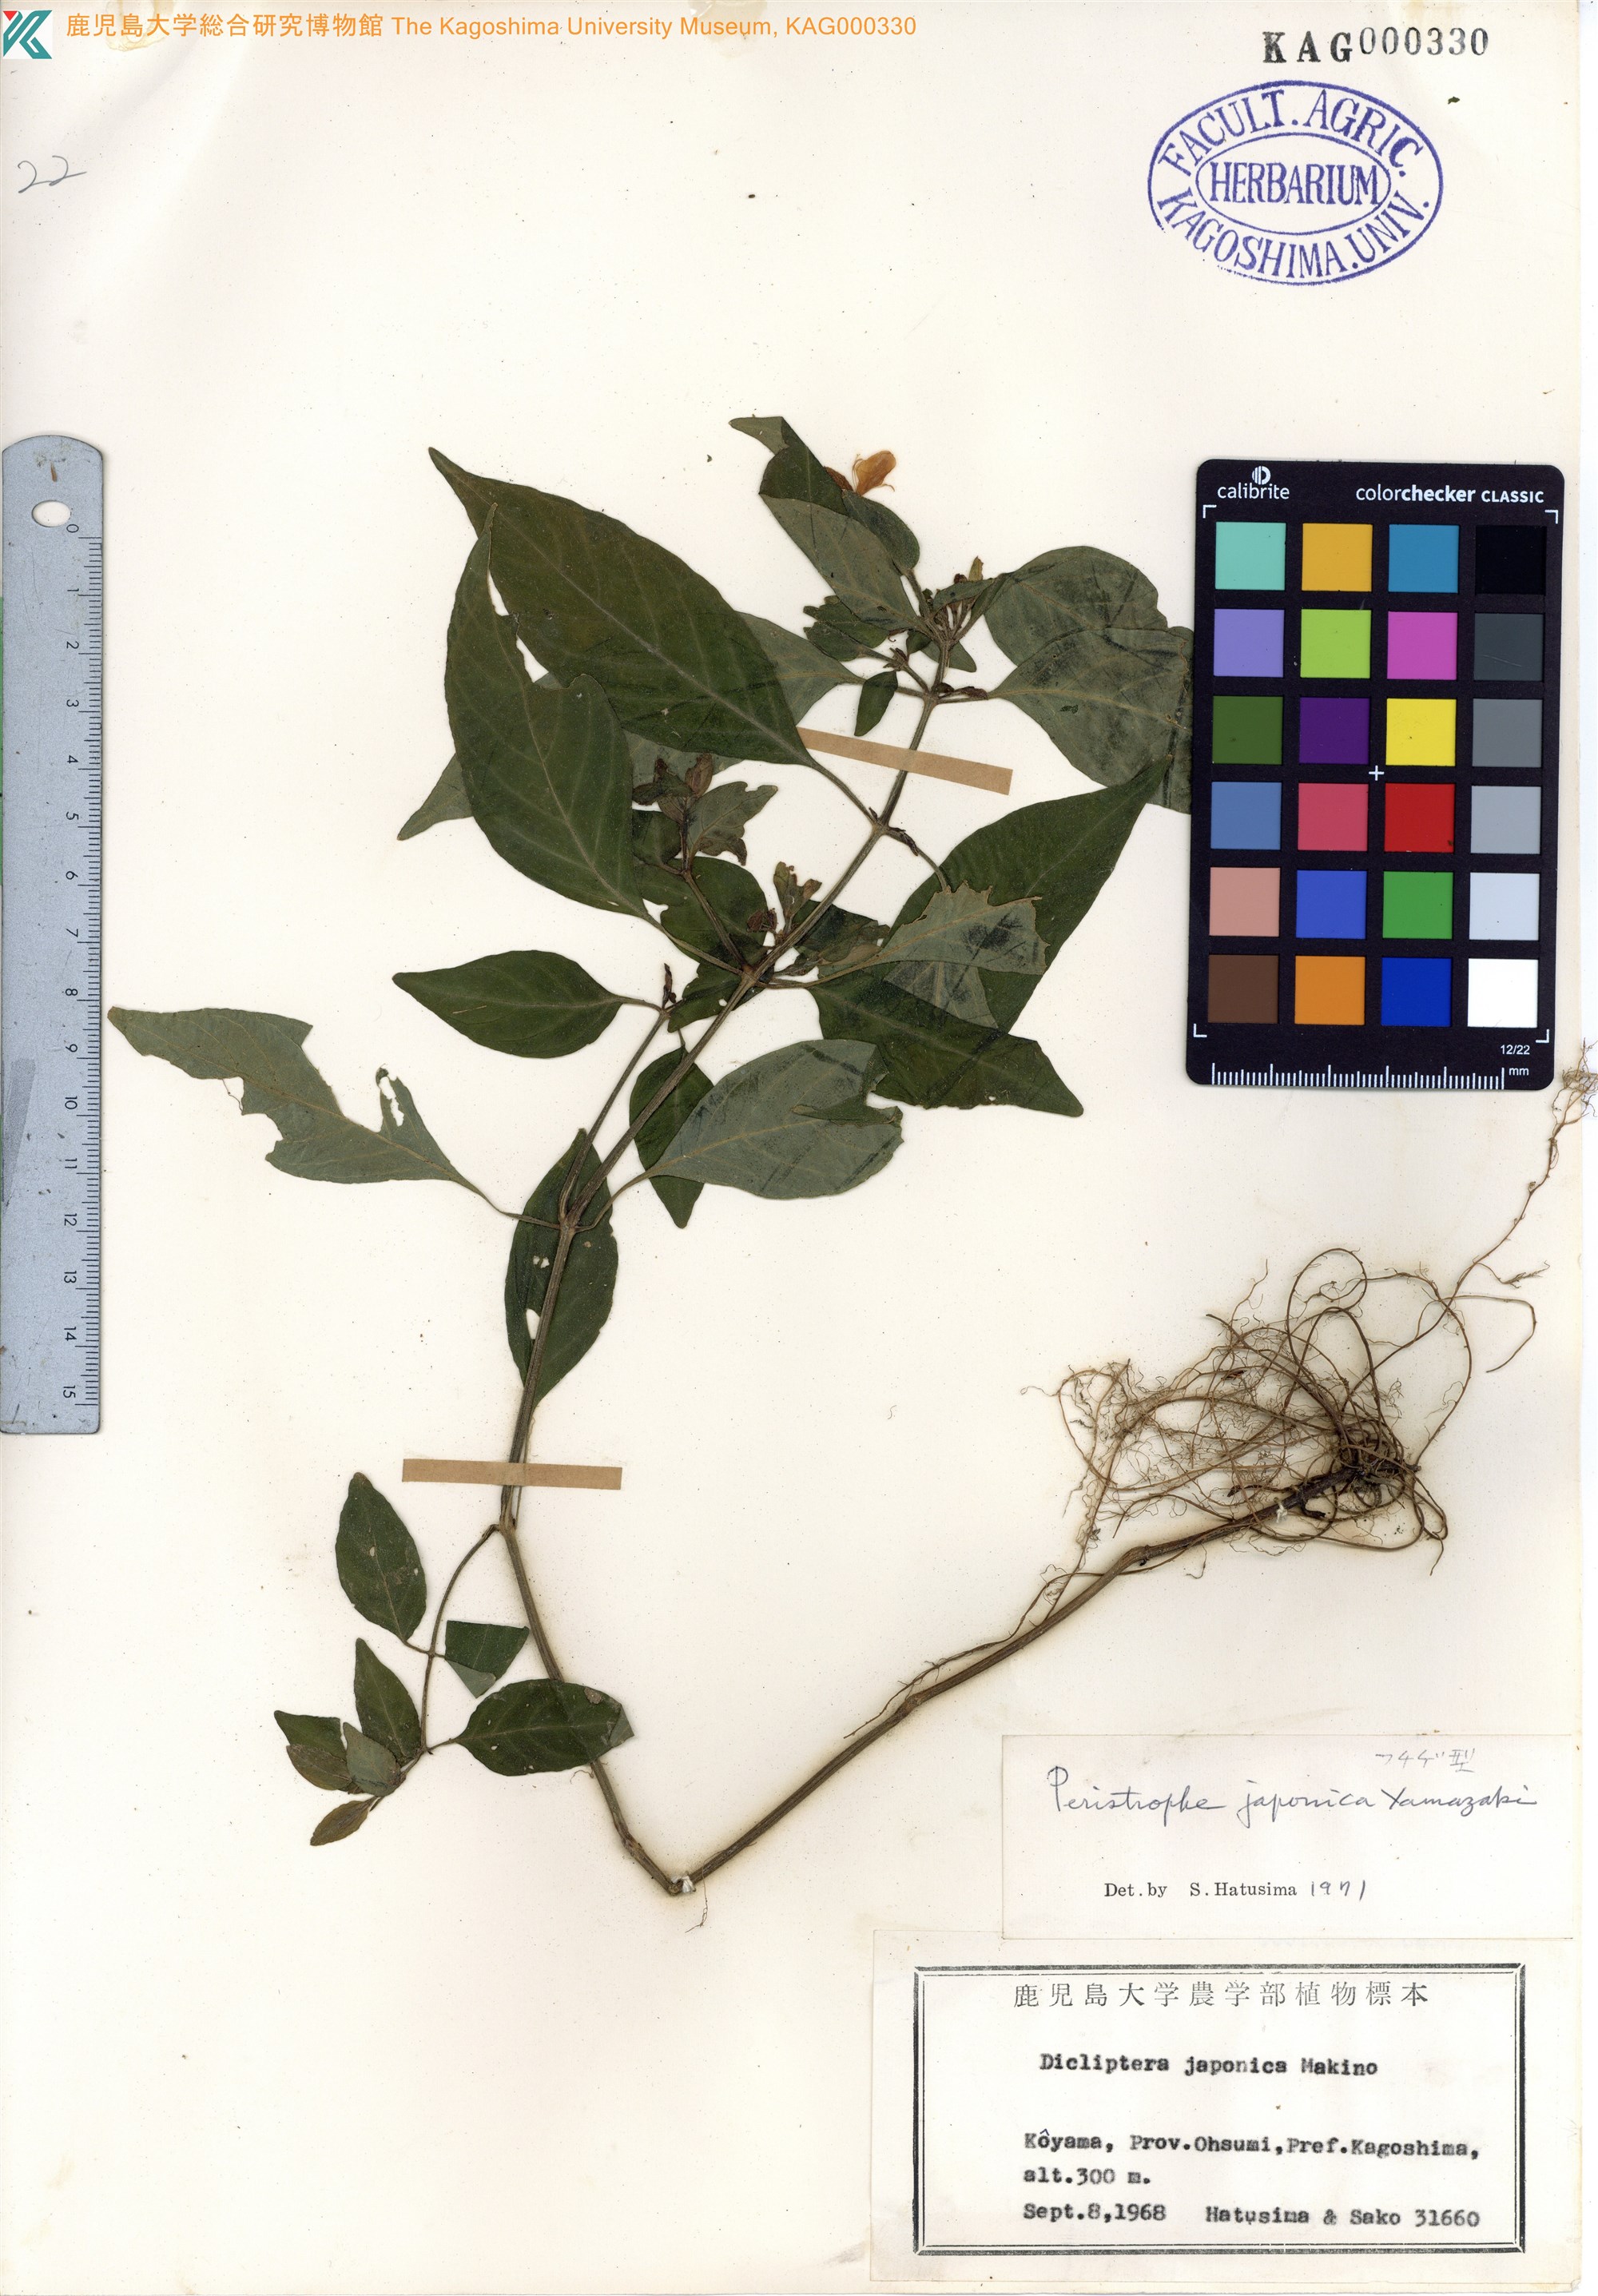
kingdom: Plantae
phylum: Tracheophyta
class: Magnoliopsida
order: Lamiales
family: Acanthaceae
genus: Dicliptera
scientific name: Dicliptera japonica
